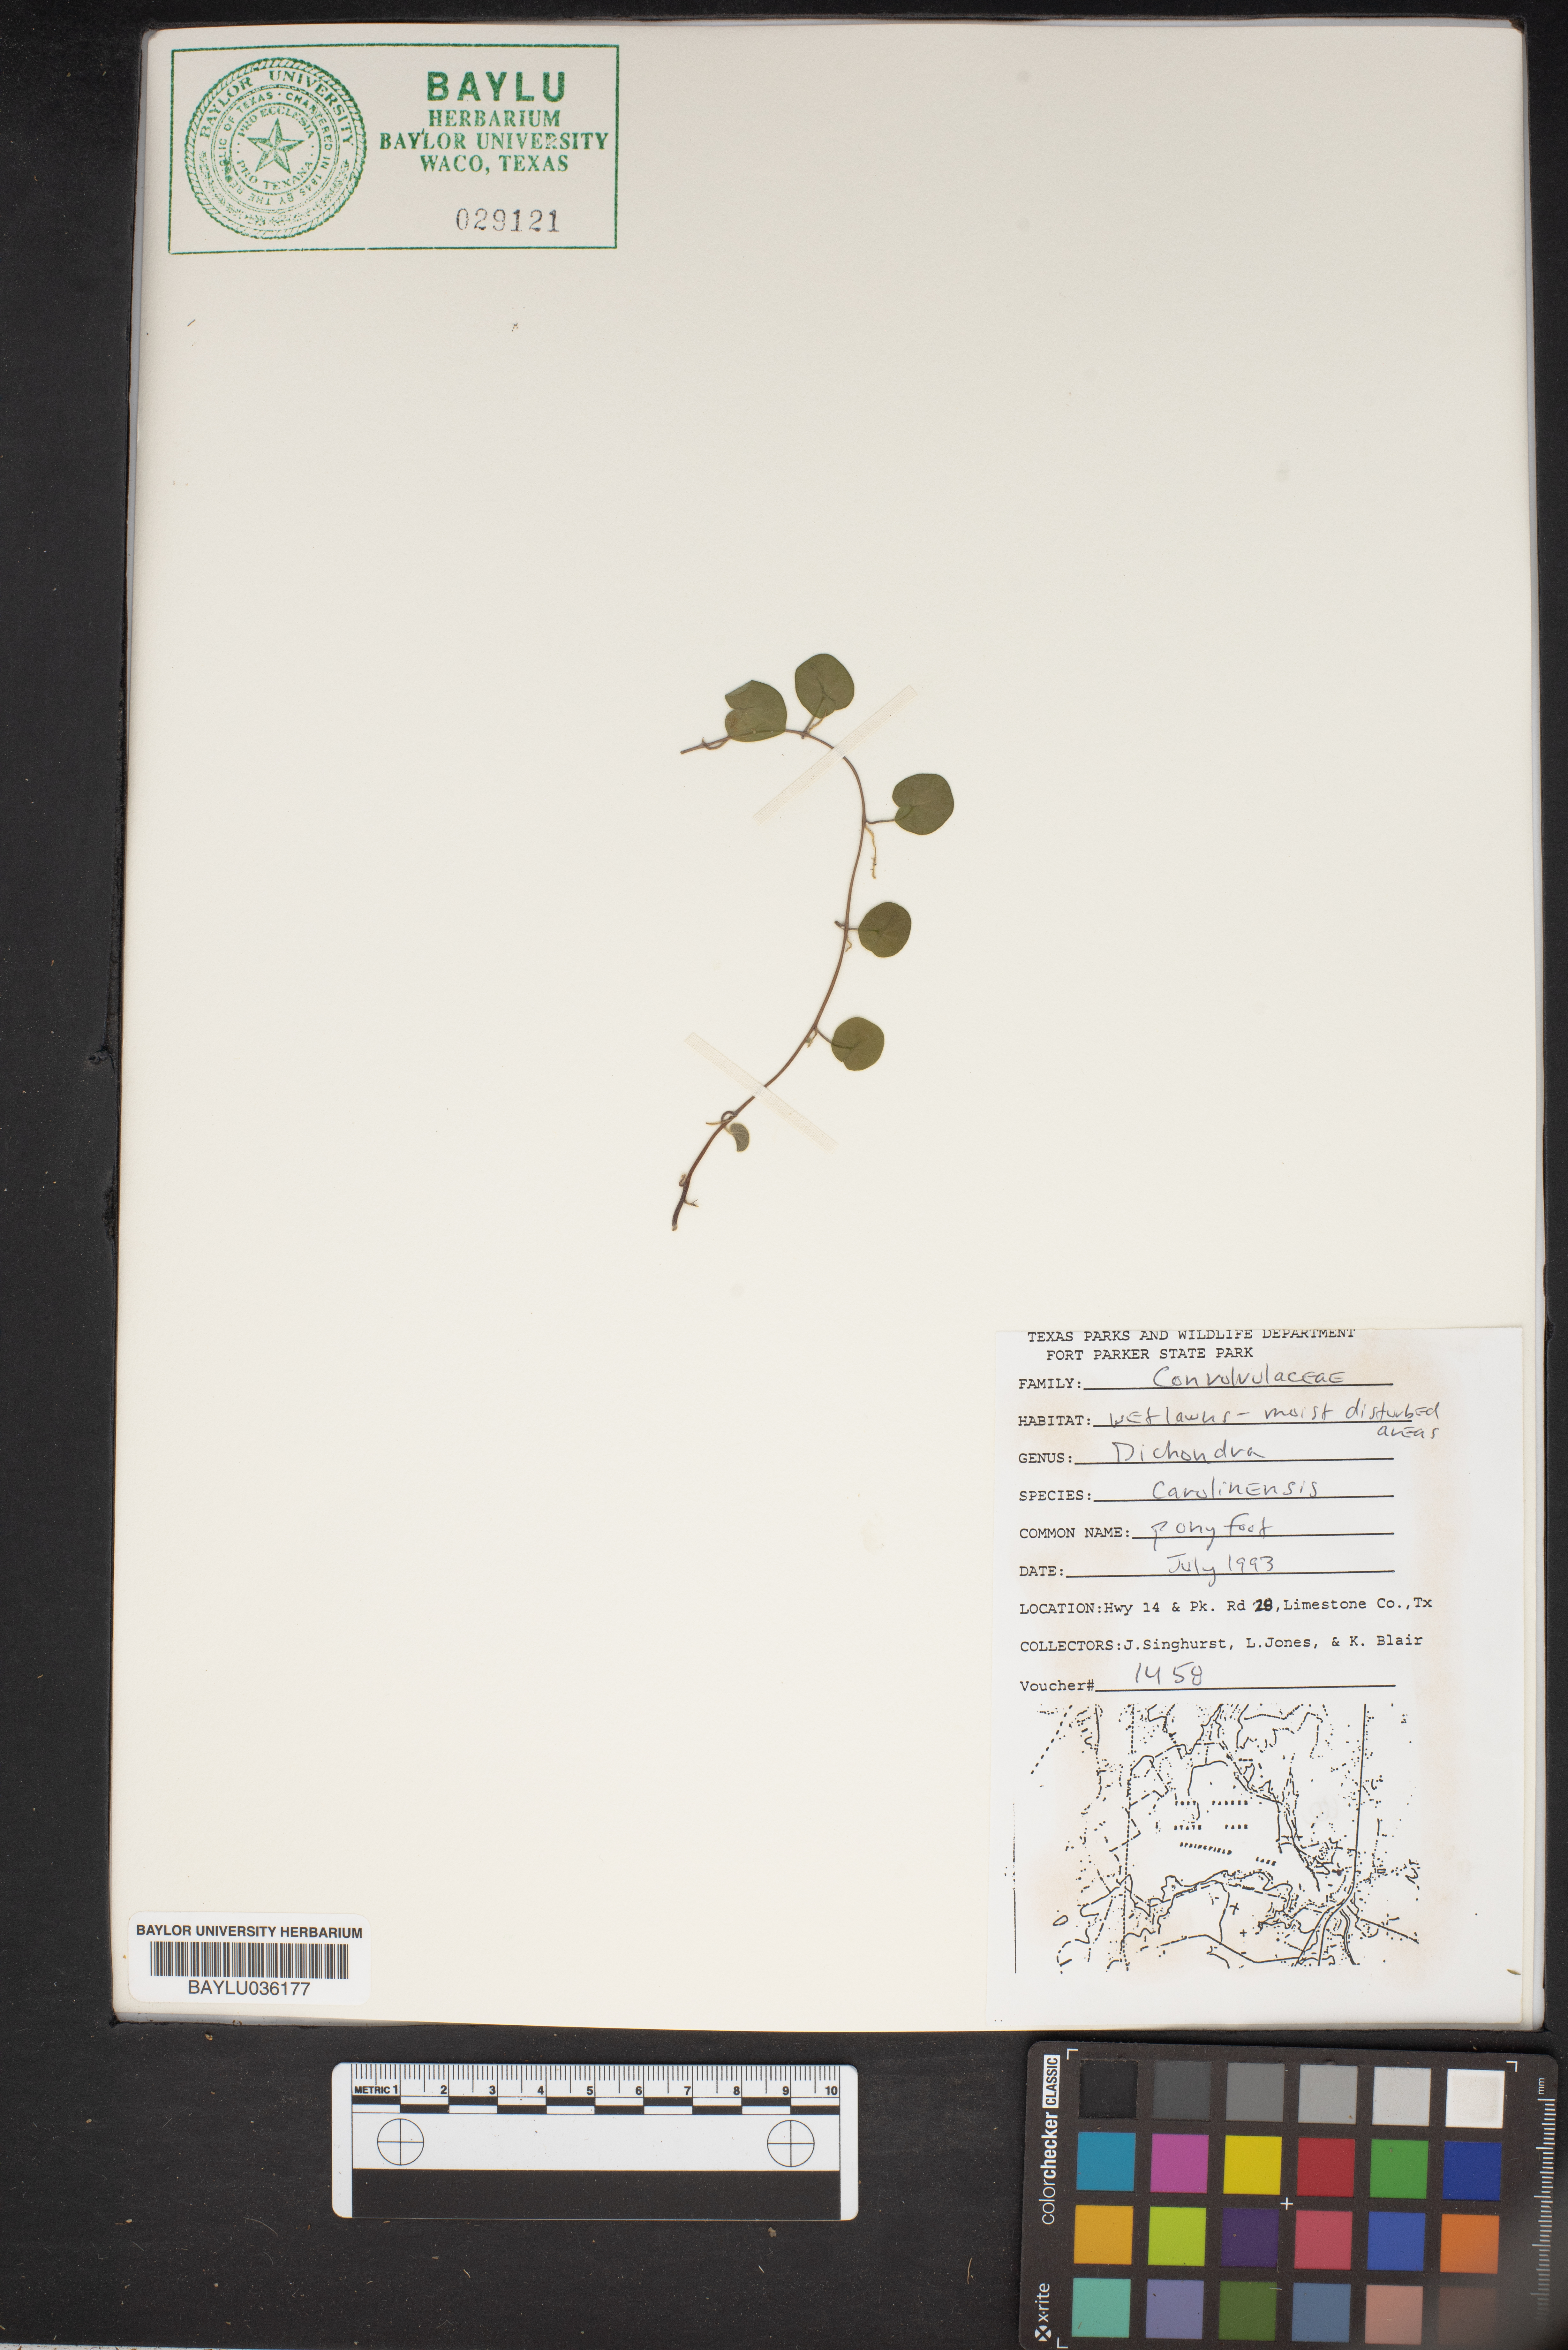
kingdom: Plantae
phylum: Tracheophyta
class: Magnoliopsida
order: Solanales
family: Convolvulaceae
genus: Dichondra
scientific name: Dichondra carolinensis
